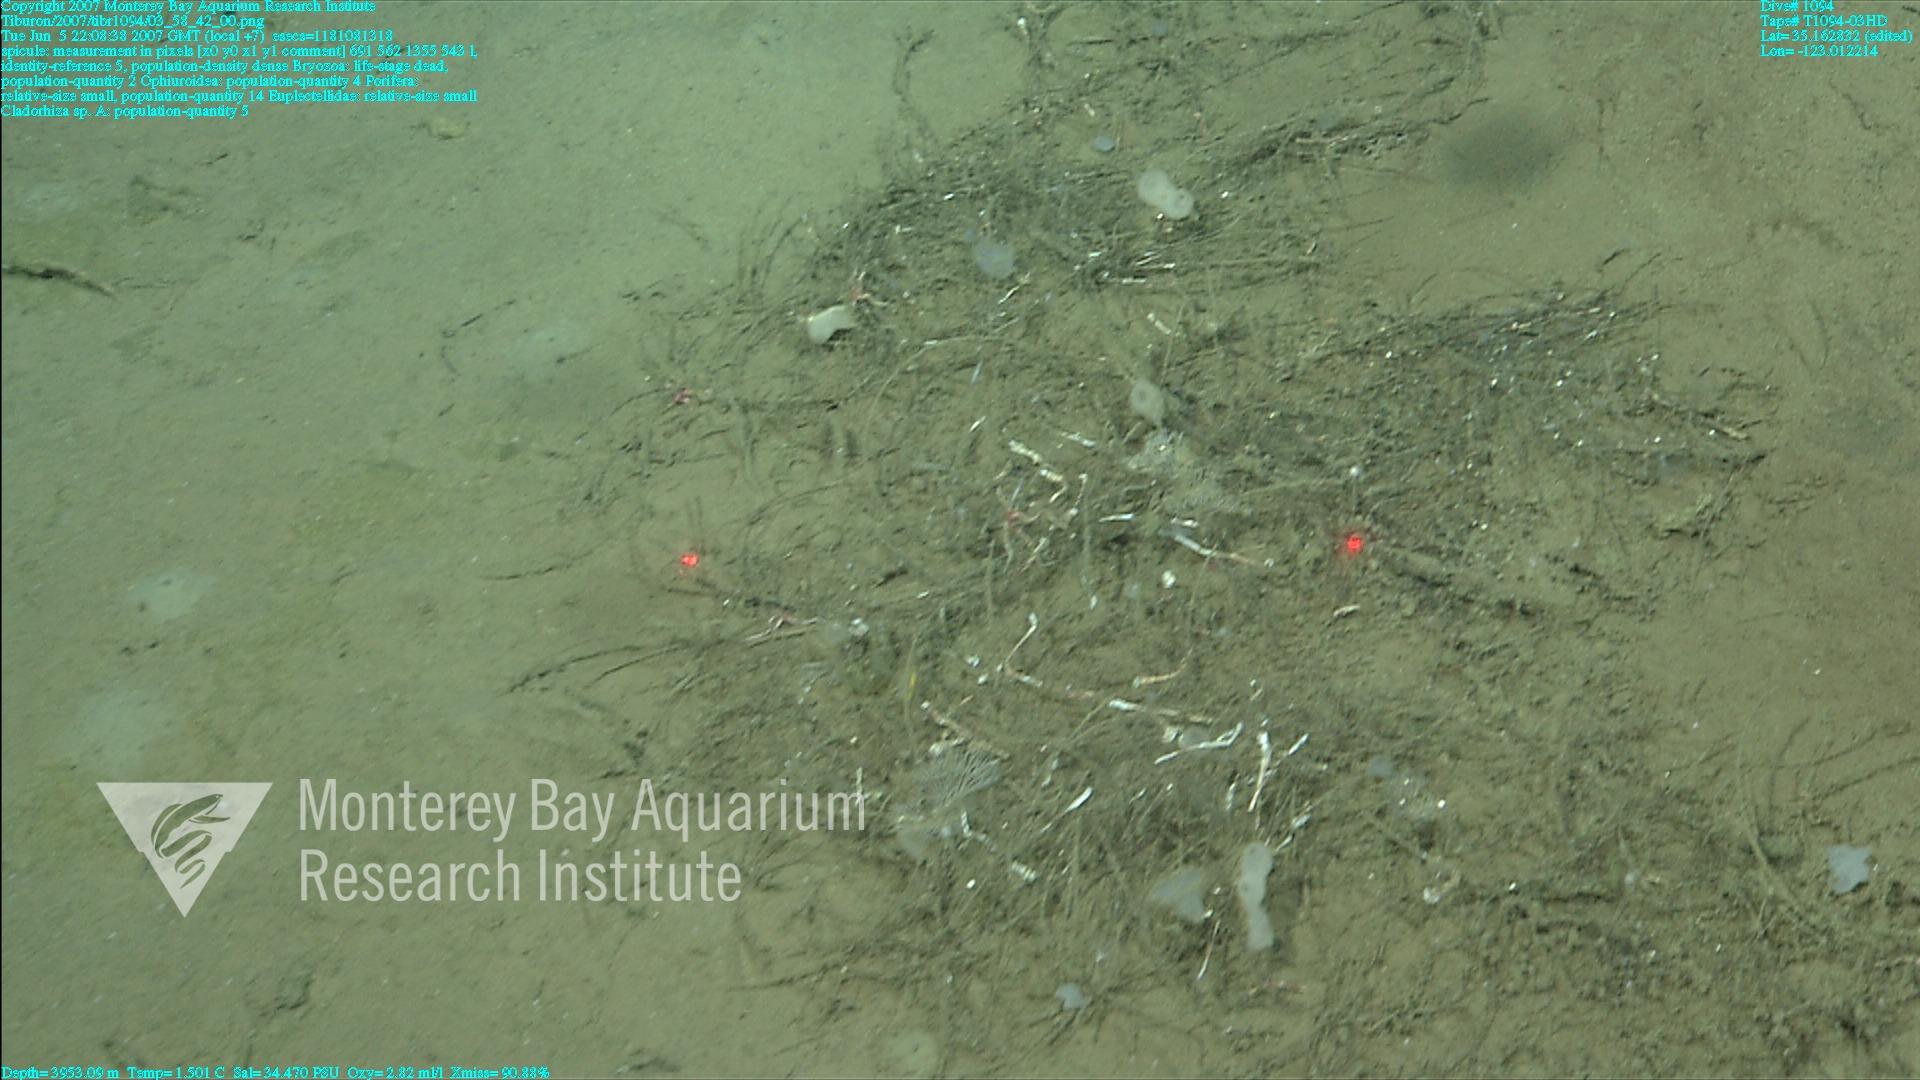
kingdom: Animalia
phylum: Porifera
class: Demospongiae
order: Poecilosclerida
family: Cladorhizidae
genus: Cladorhiza
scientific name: Cladorhiza
